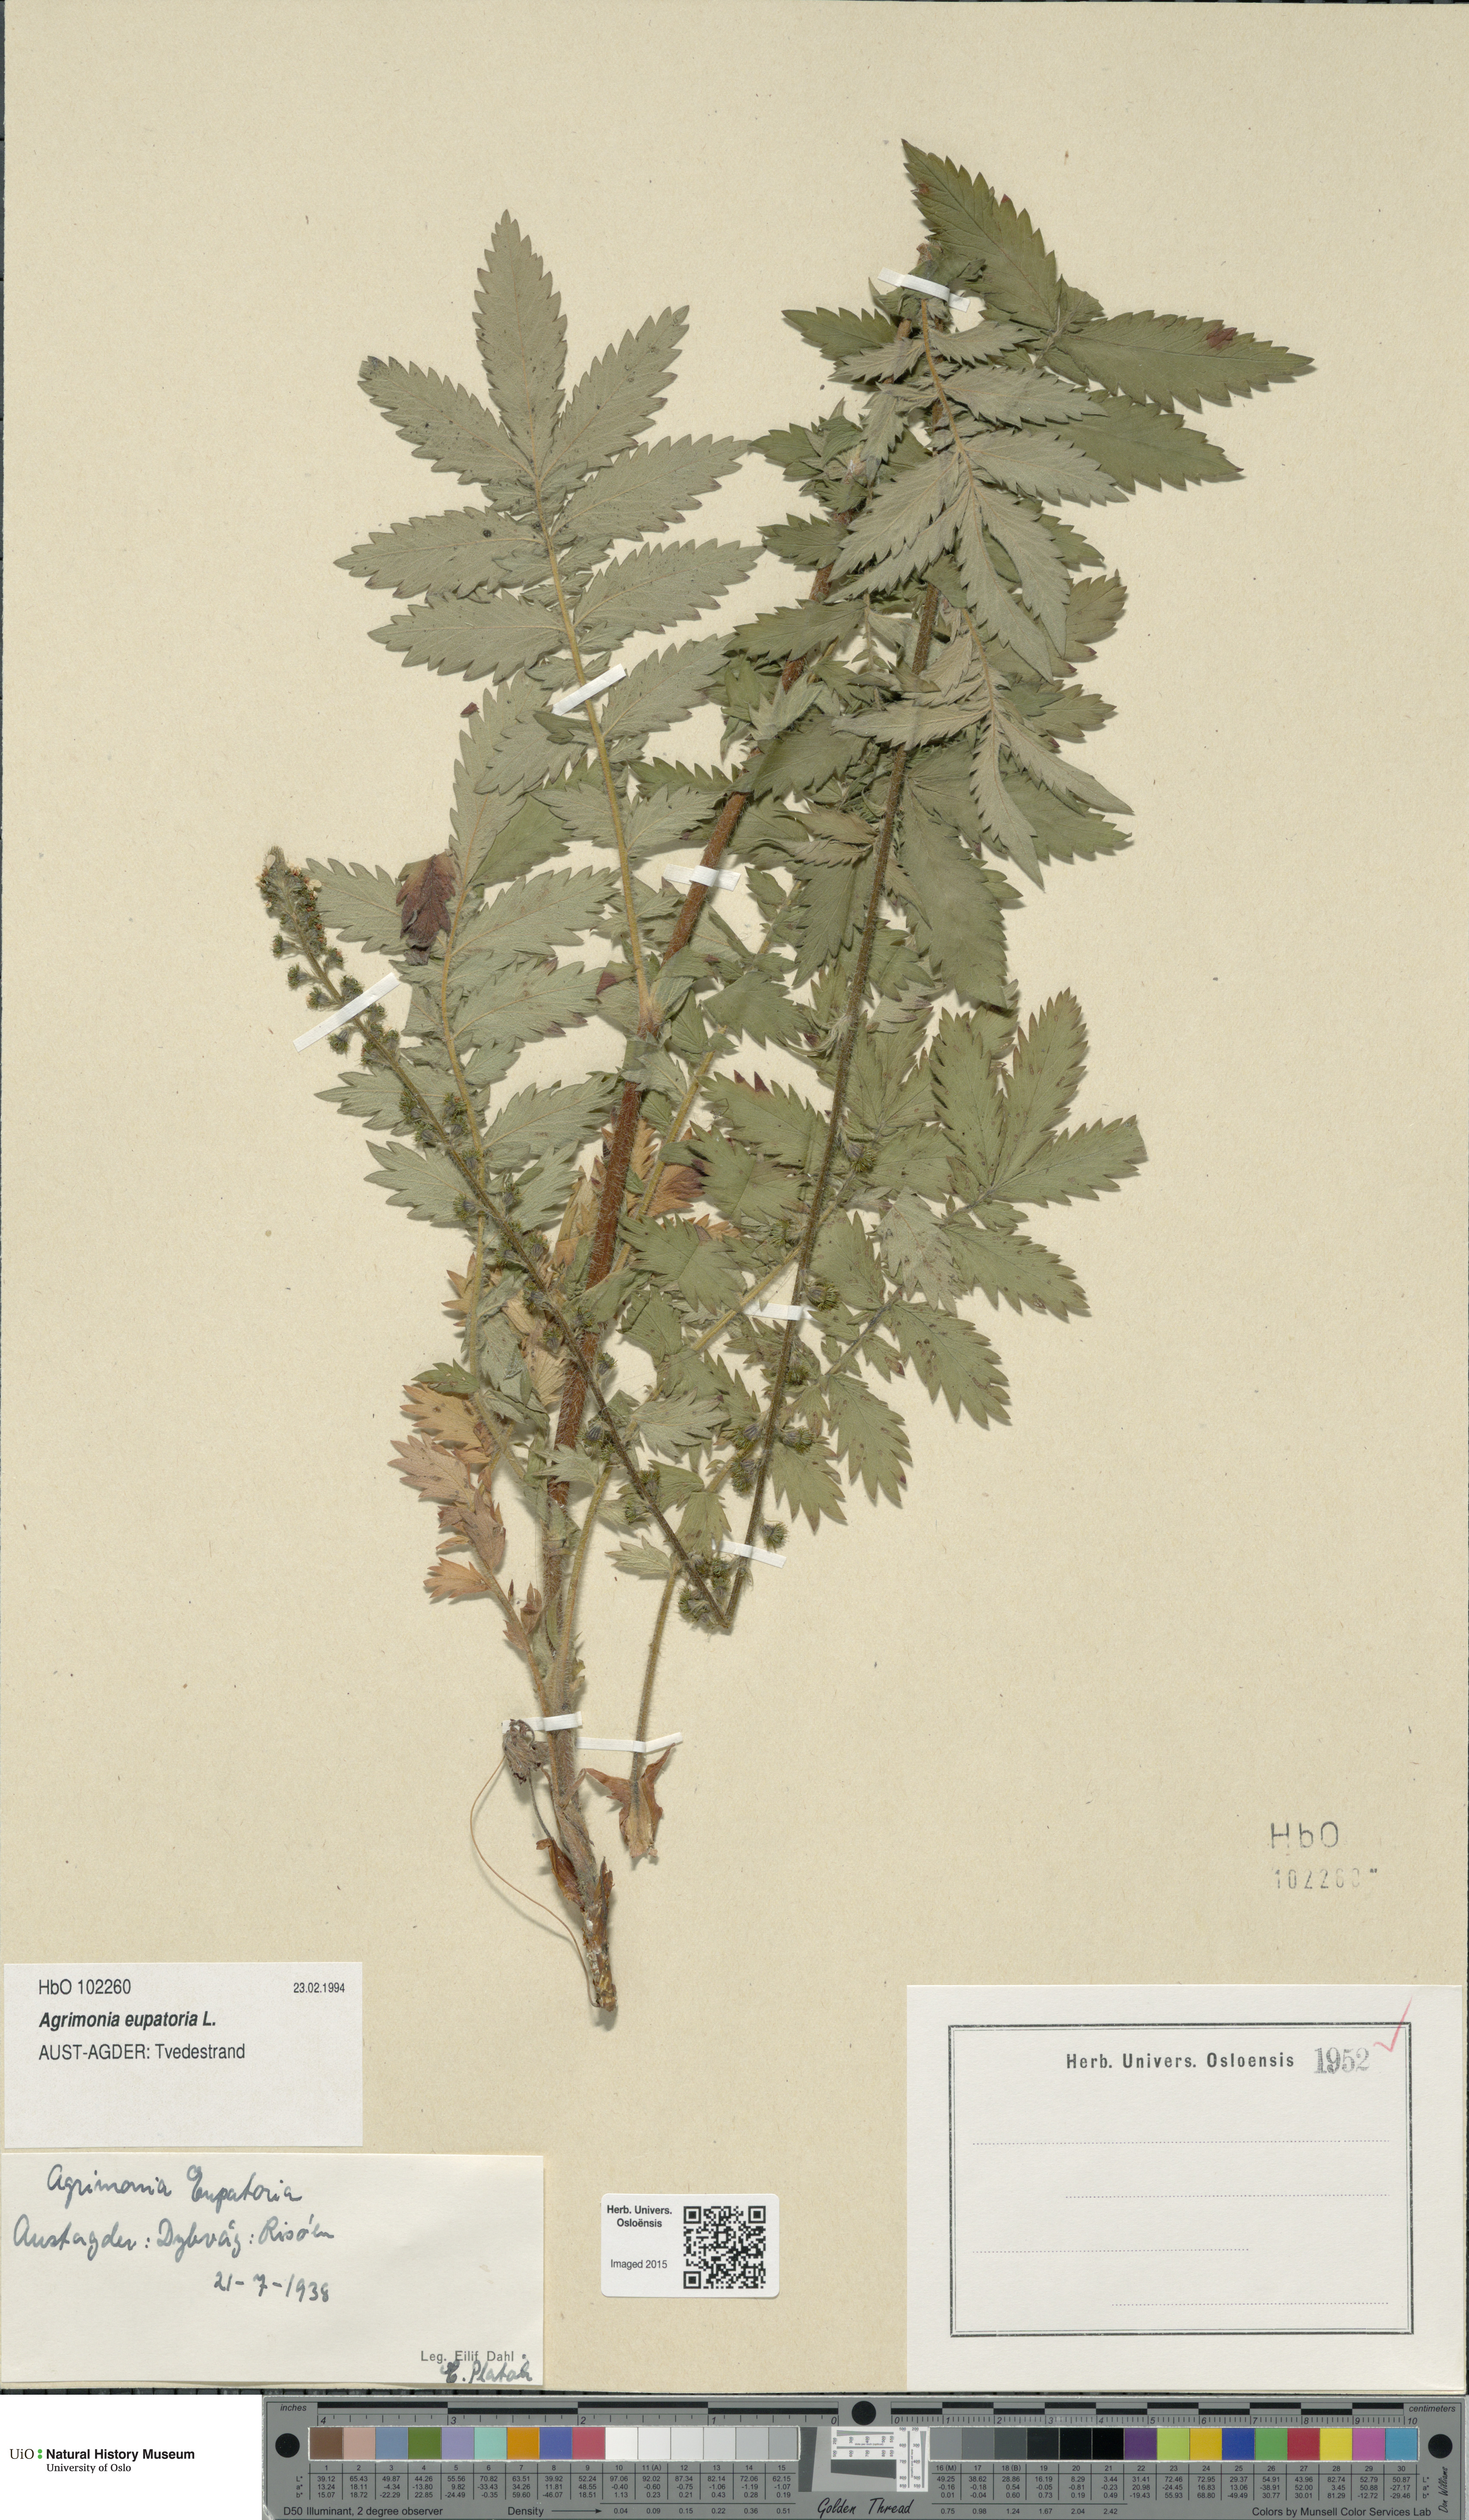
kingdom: Plantae
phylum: Tracheophyta
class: Magnoliopsida
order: Rosales
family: Rosaceae
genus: Agrimonia
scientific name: Agrimonia eupatoria
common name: Agrimony
